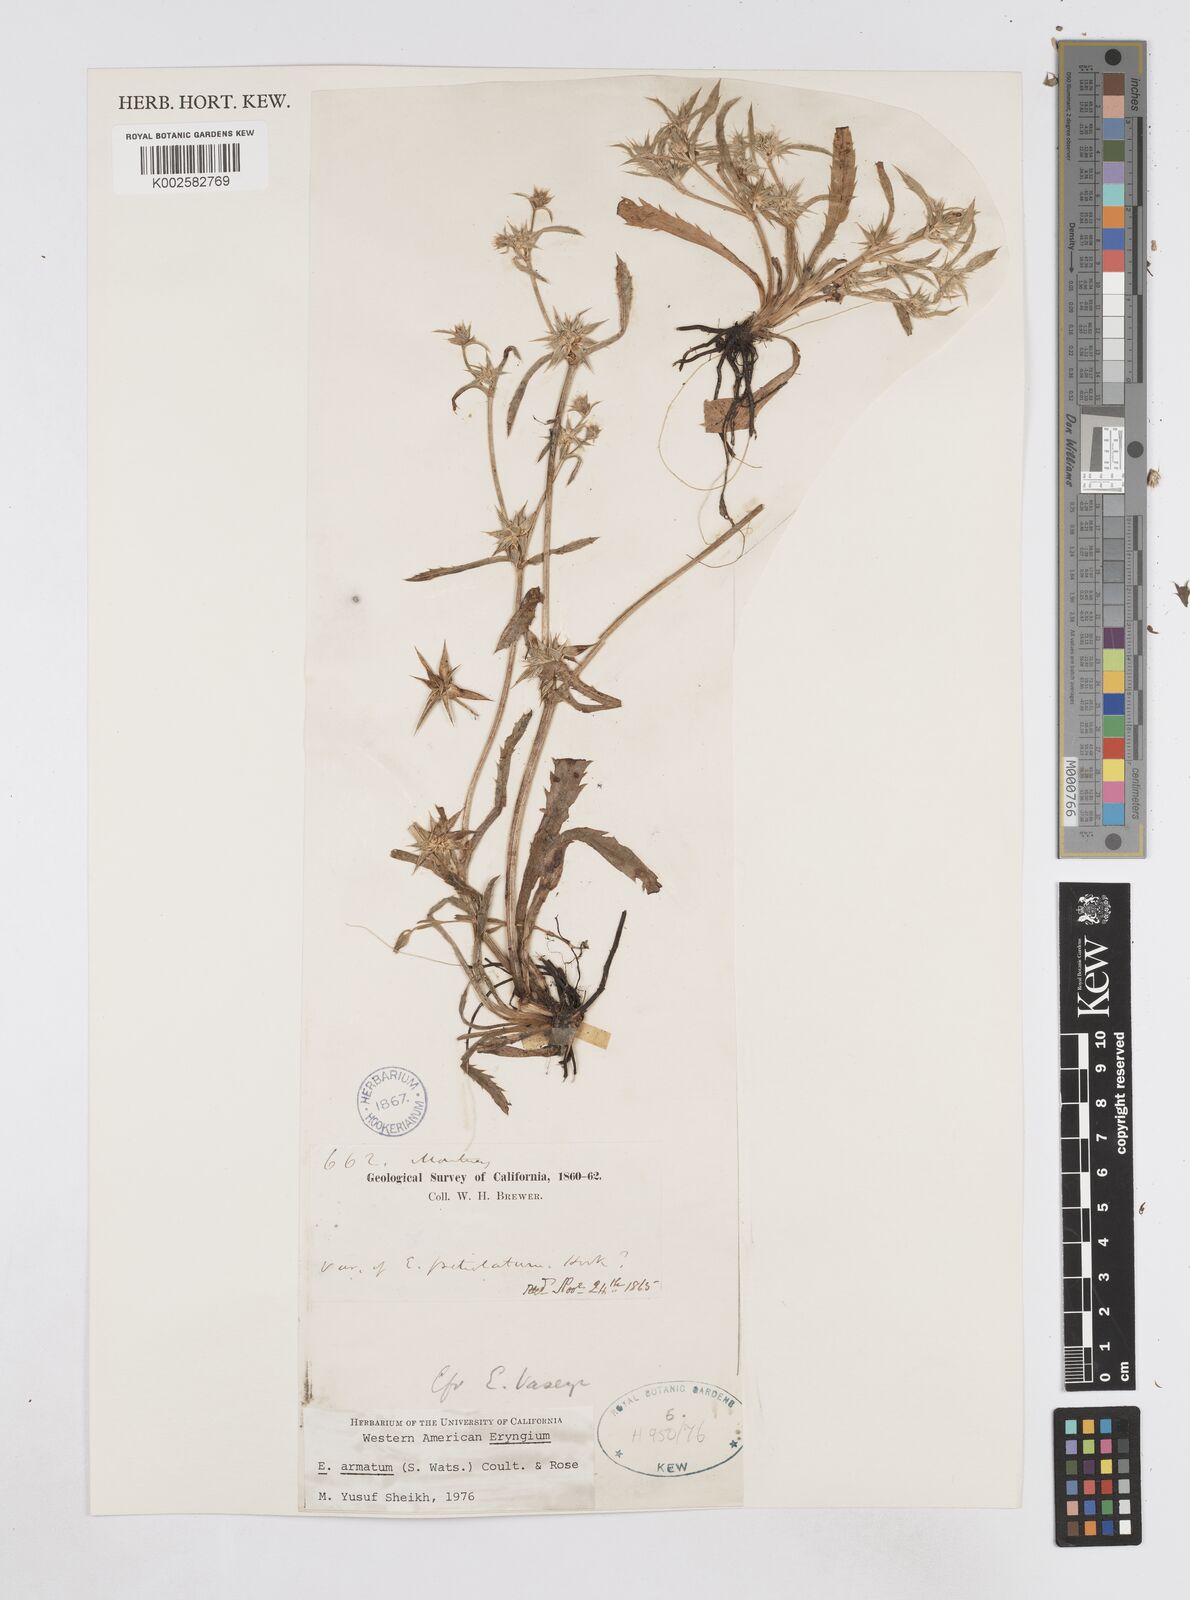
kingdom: Plantae
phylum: Tracheophyta
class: Magnoliopsida
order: Apiales
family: Apiaceae
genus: Eryngium
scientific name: Eryngium armatum
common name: Coyote thistle
